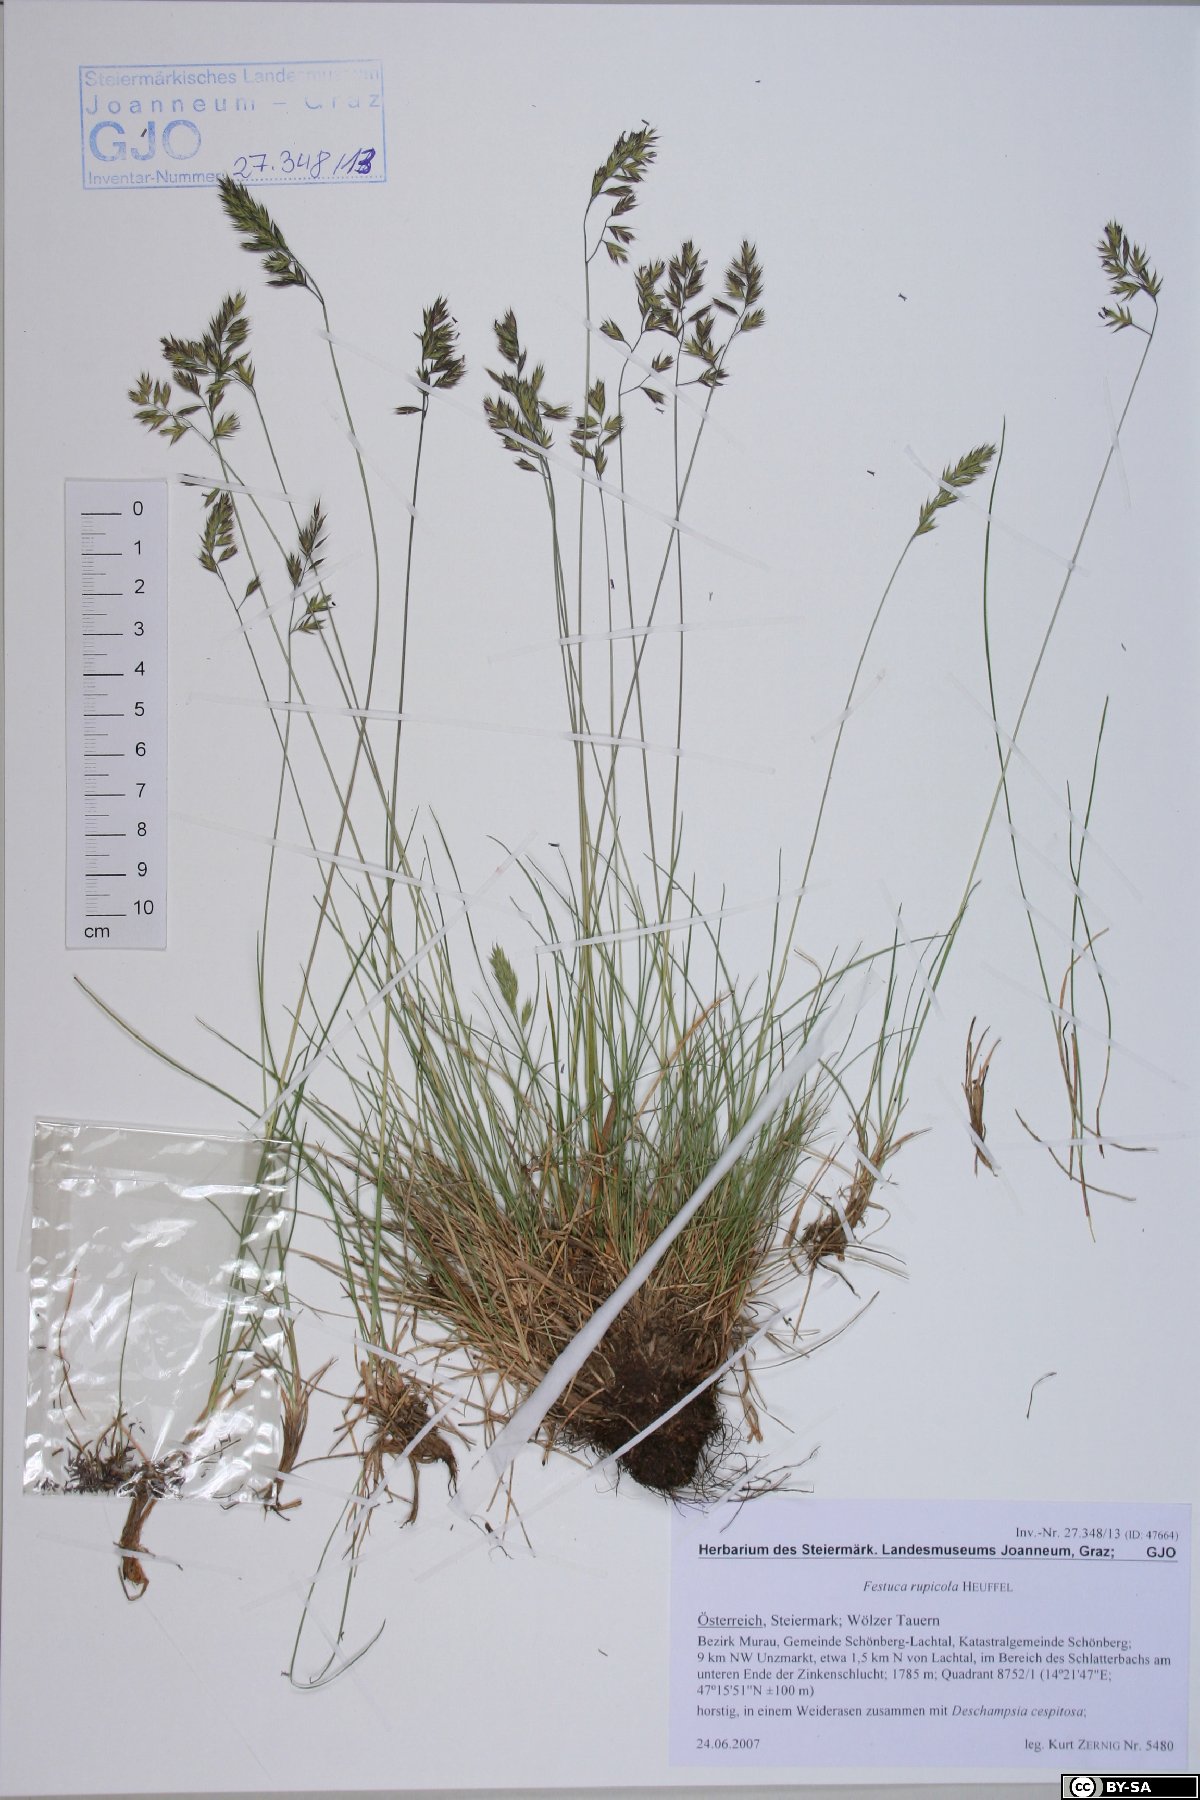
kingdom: Plantae
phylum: Tracheophyta
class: Liliopsida
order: Poales
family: Poaceae
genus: Festuca
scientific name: Festuca rupicola
